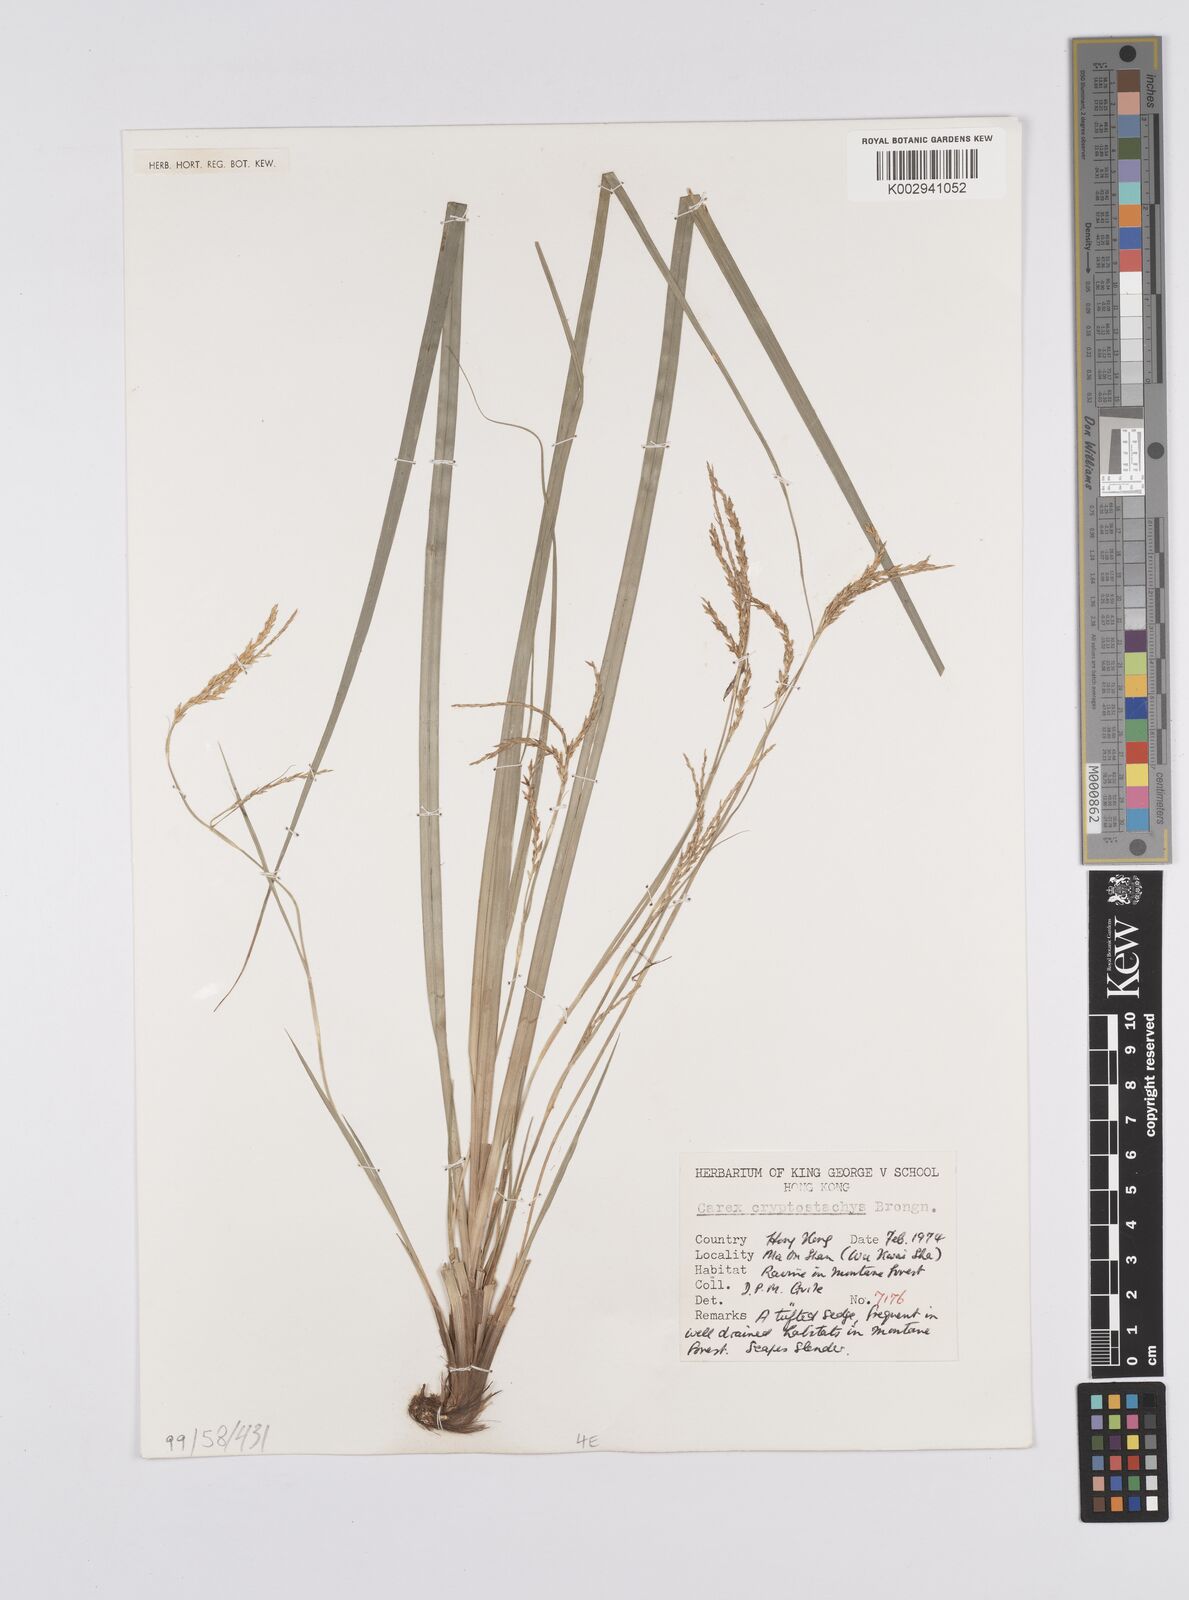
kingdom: Plantae
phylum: Tracheophyta
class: Liliopsida
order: Poales
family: Cyperaceae
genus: Carex
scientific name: Carex cryptostachys
